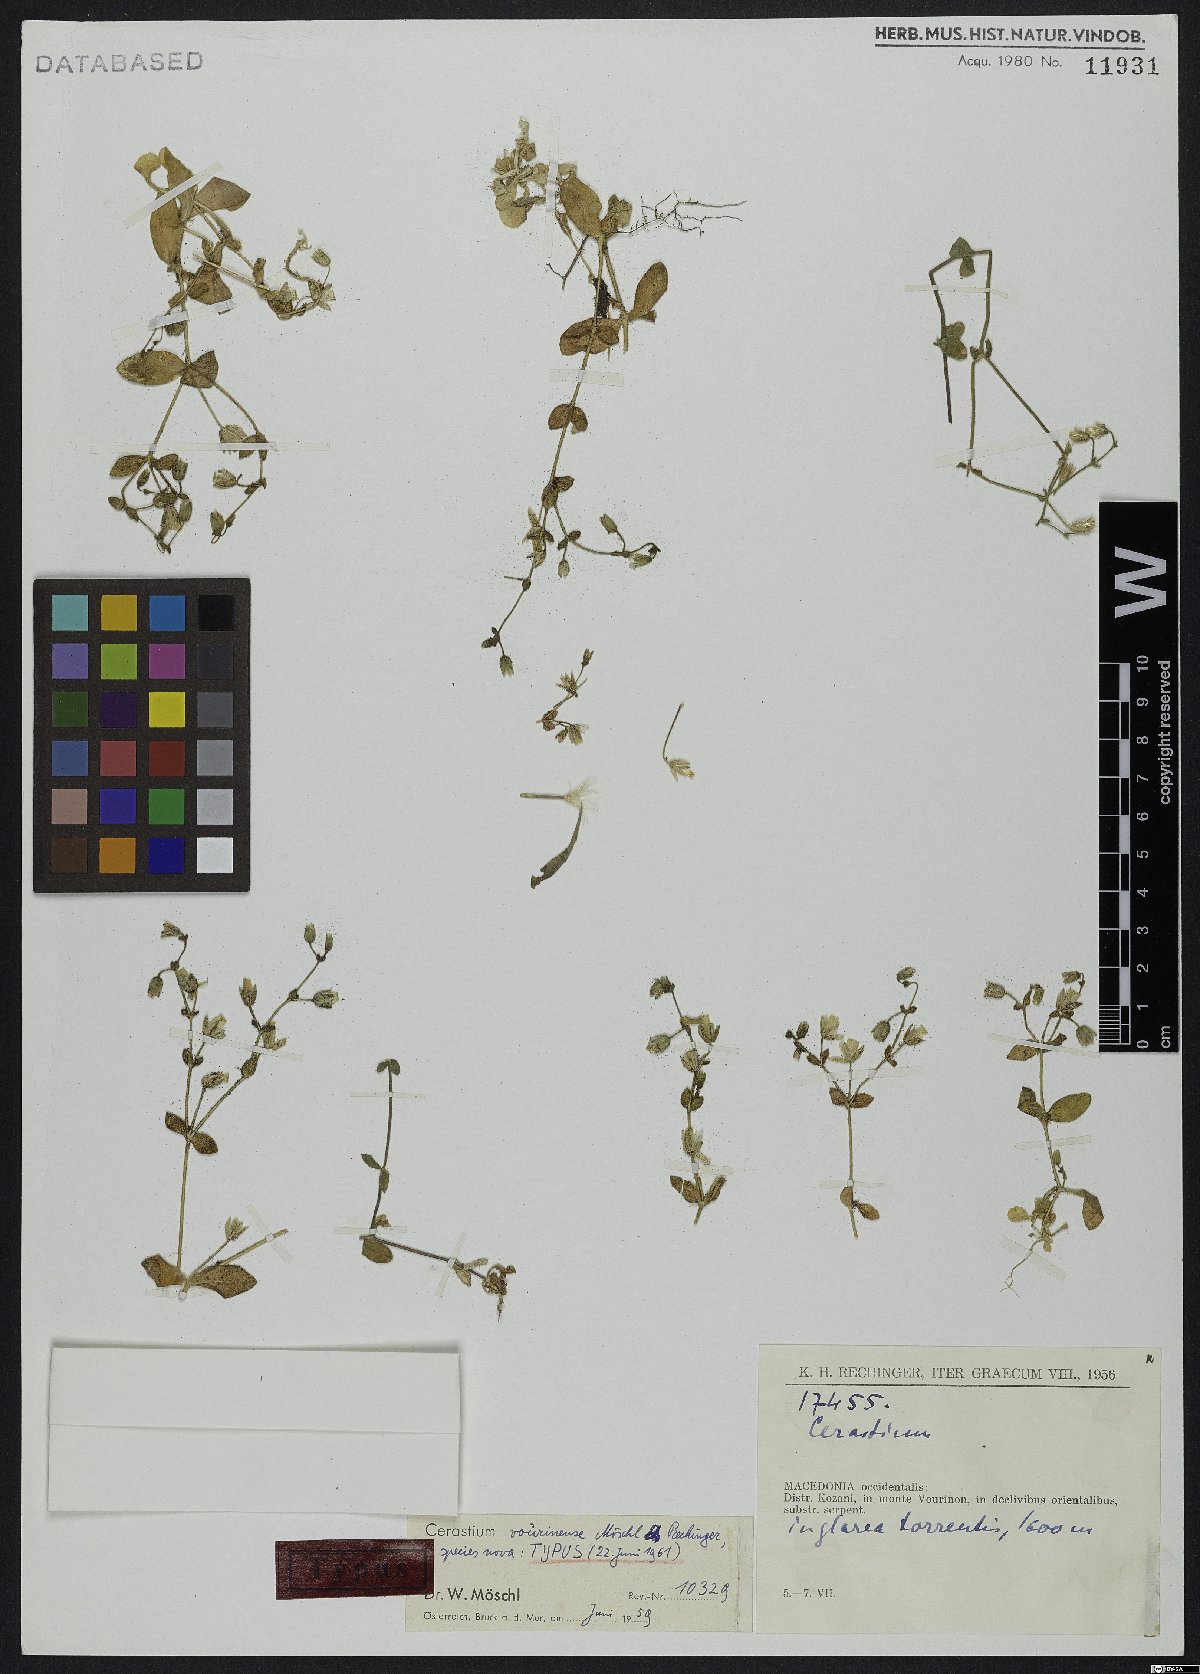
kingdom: Plantae
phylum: Tracheophyta
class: Magnoliopsida
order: Caryophyllales
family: Caryophyllaceae
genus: Cerastium
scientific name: Cerastium vourinense
